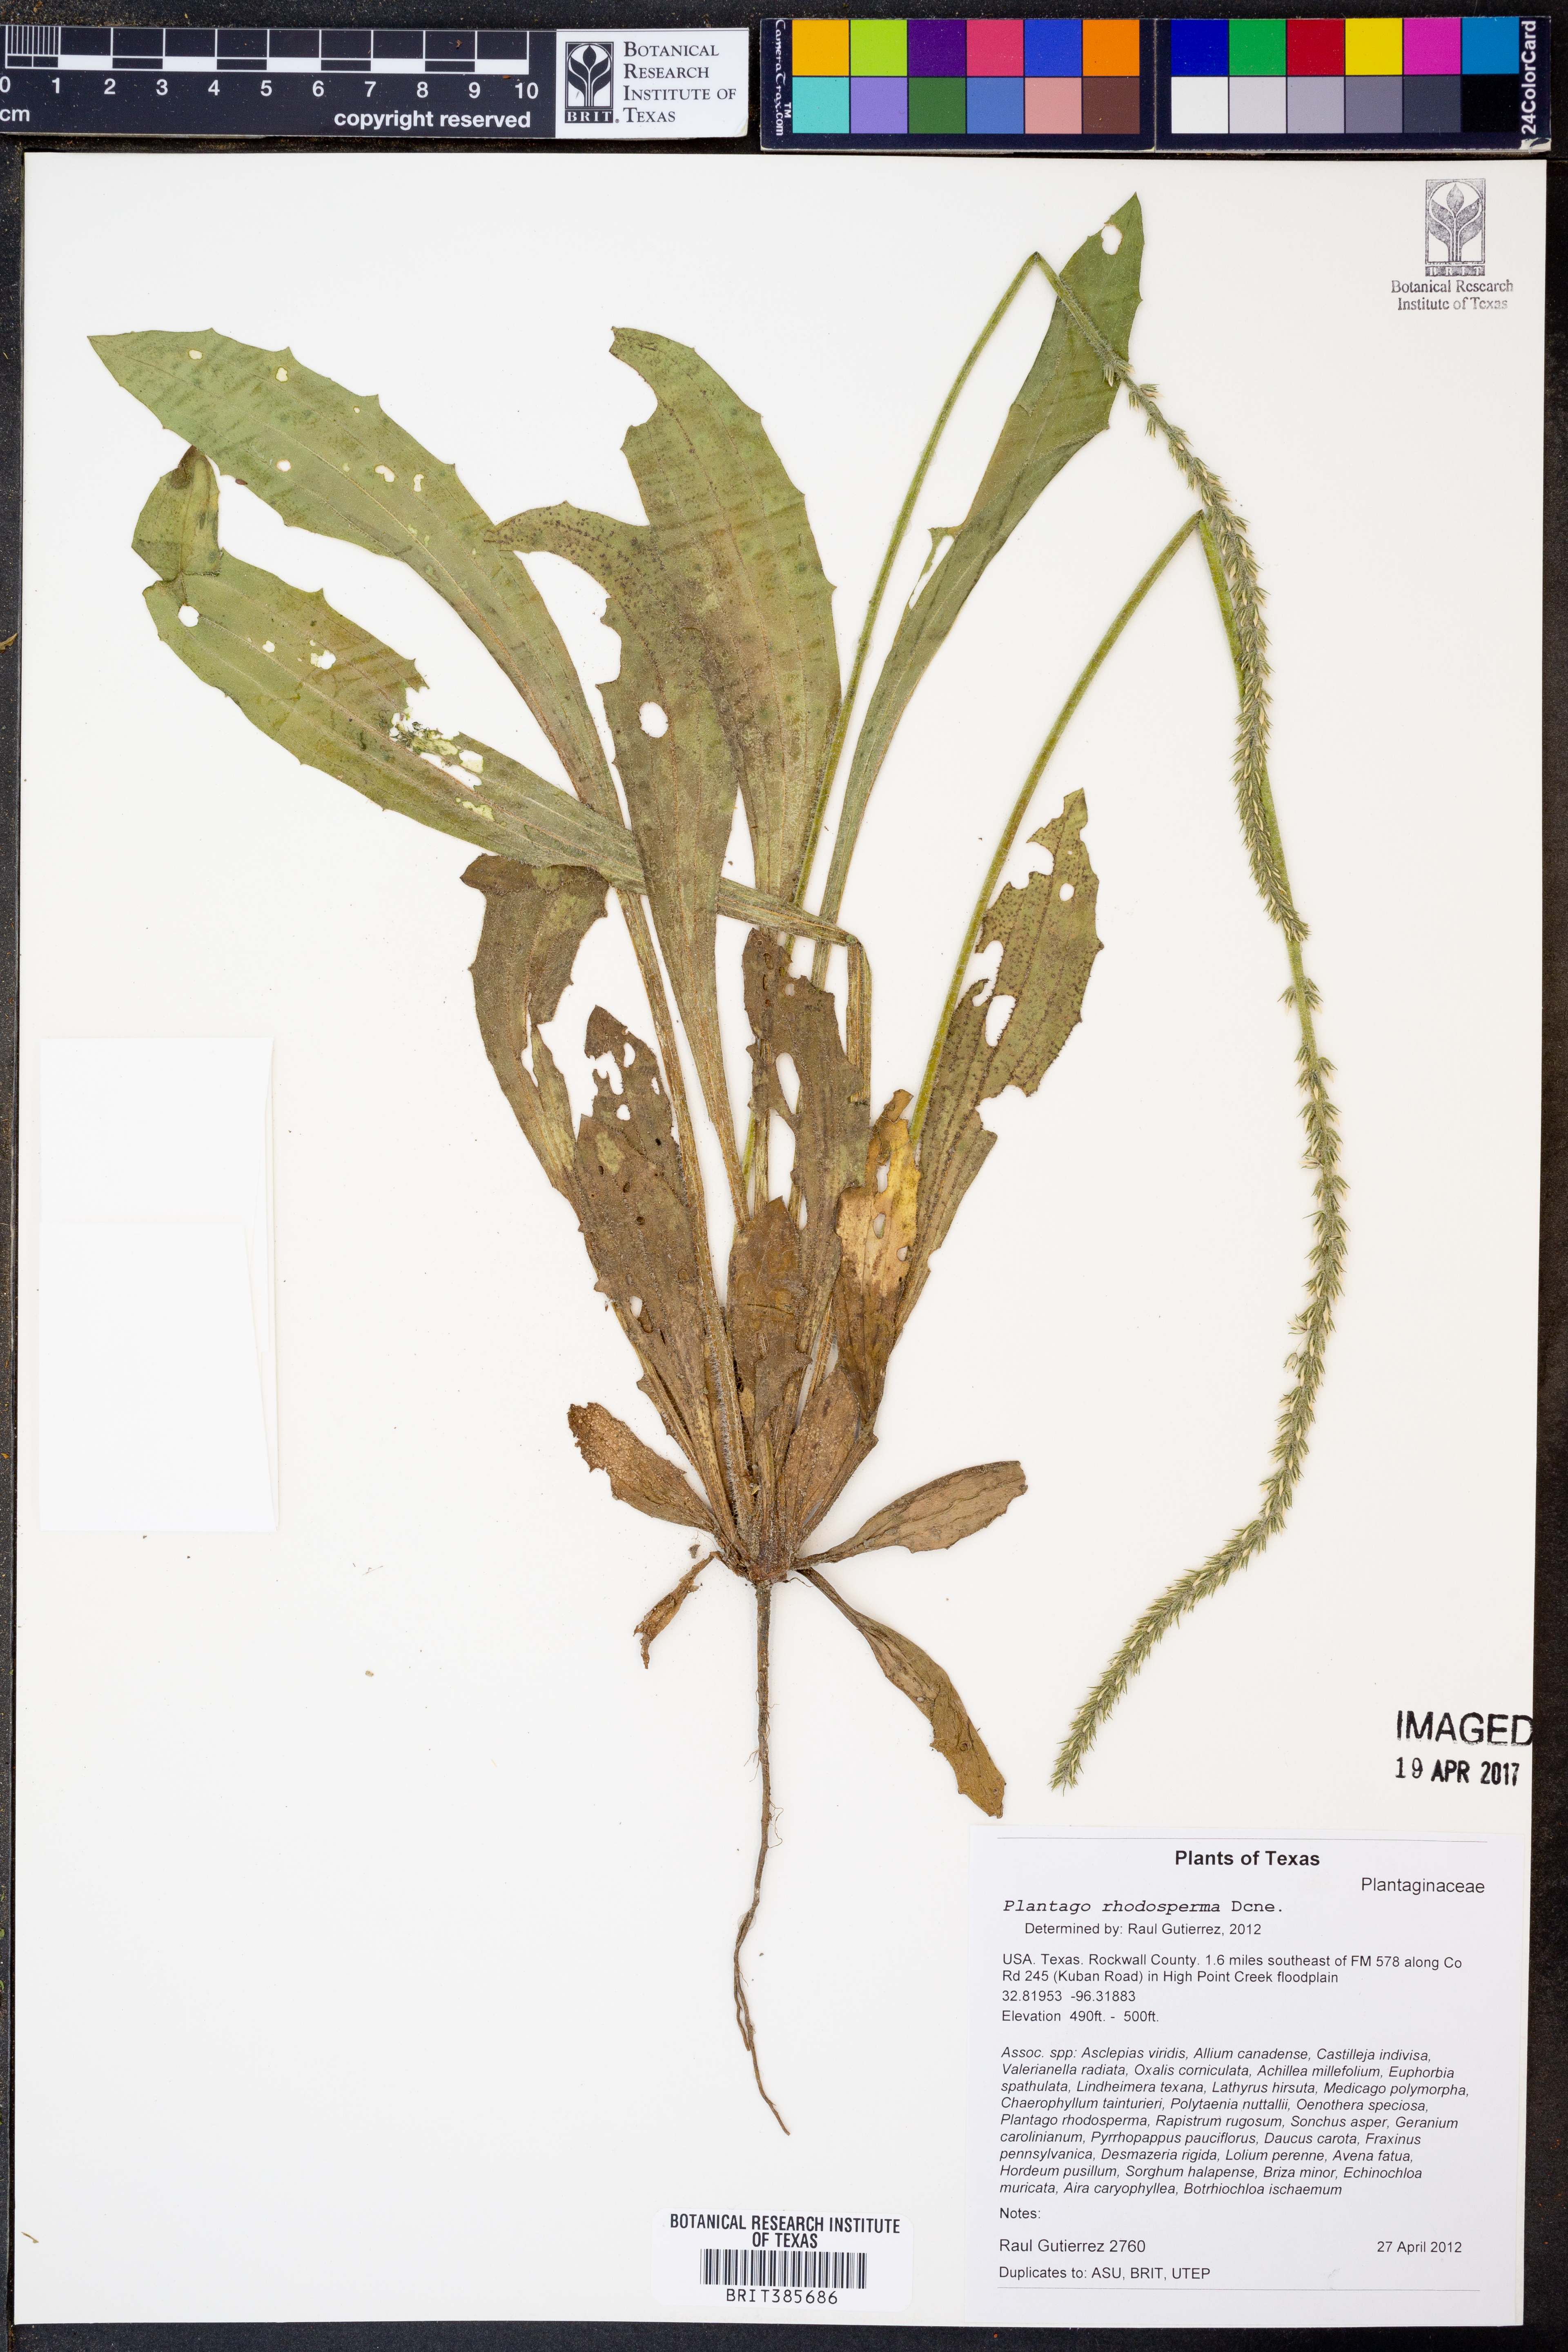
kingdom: Plantae
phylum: Tracheophyta
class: Magnoliopsida
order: Lamiales
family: Plantaginaceae
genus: Plantago
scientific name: Plantago rhodosperma
